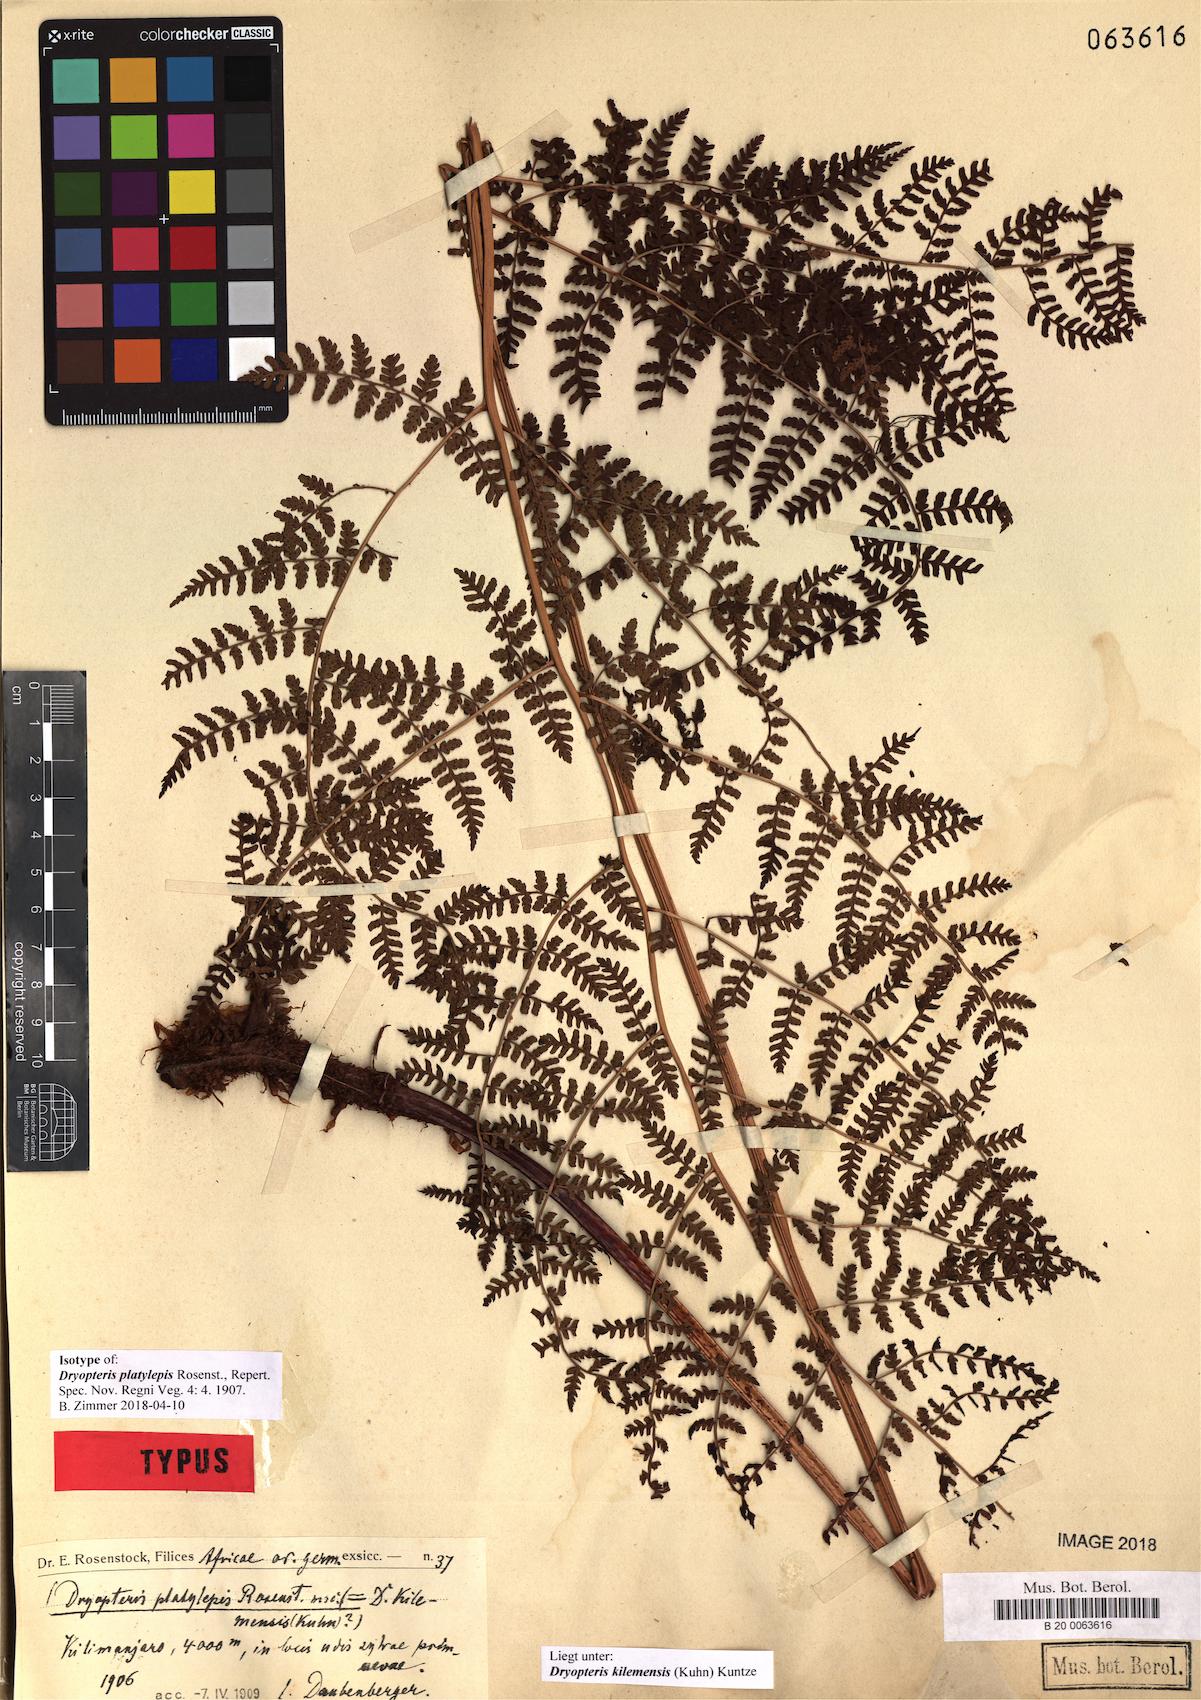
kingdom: Plantae
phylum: Tracheophyta
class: Polypodiopsida
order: Polypodiales
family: Dryopteridaceae
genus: Dryopteris
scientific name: Dryopteris kilemensis
